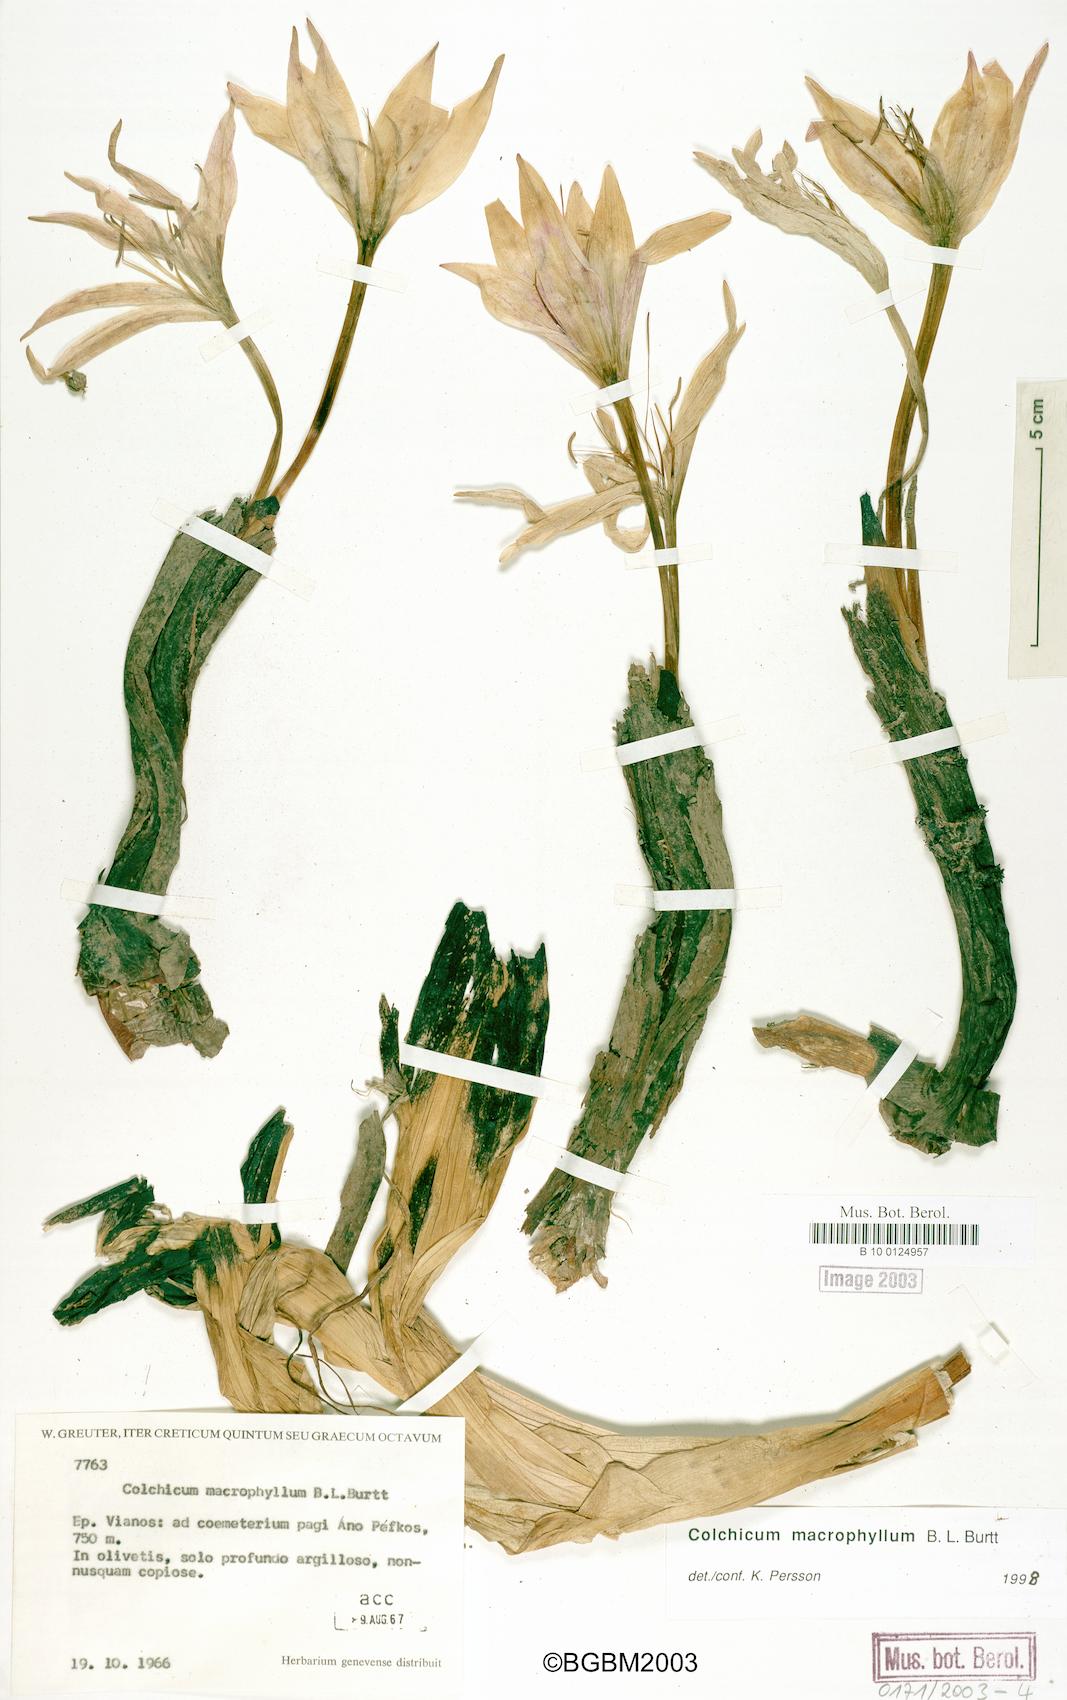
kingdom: Plantae
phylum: Tracheophyta
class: Liliopsida
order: Liliales
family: Colchicaceae
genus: Colchicum
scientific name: Colchicum macrophyllum
